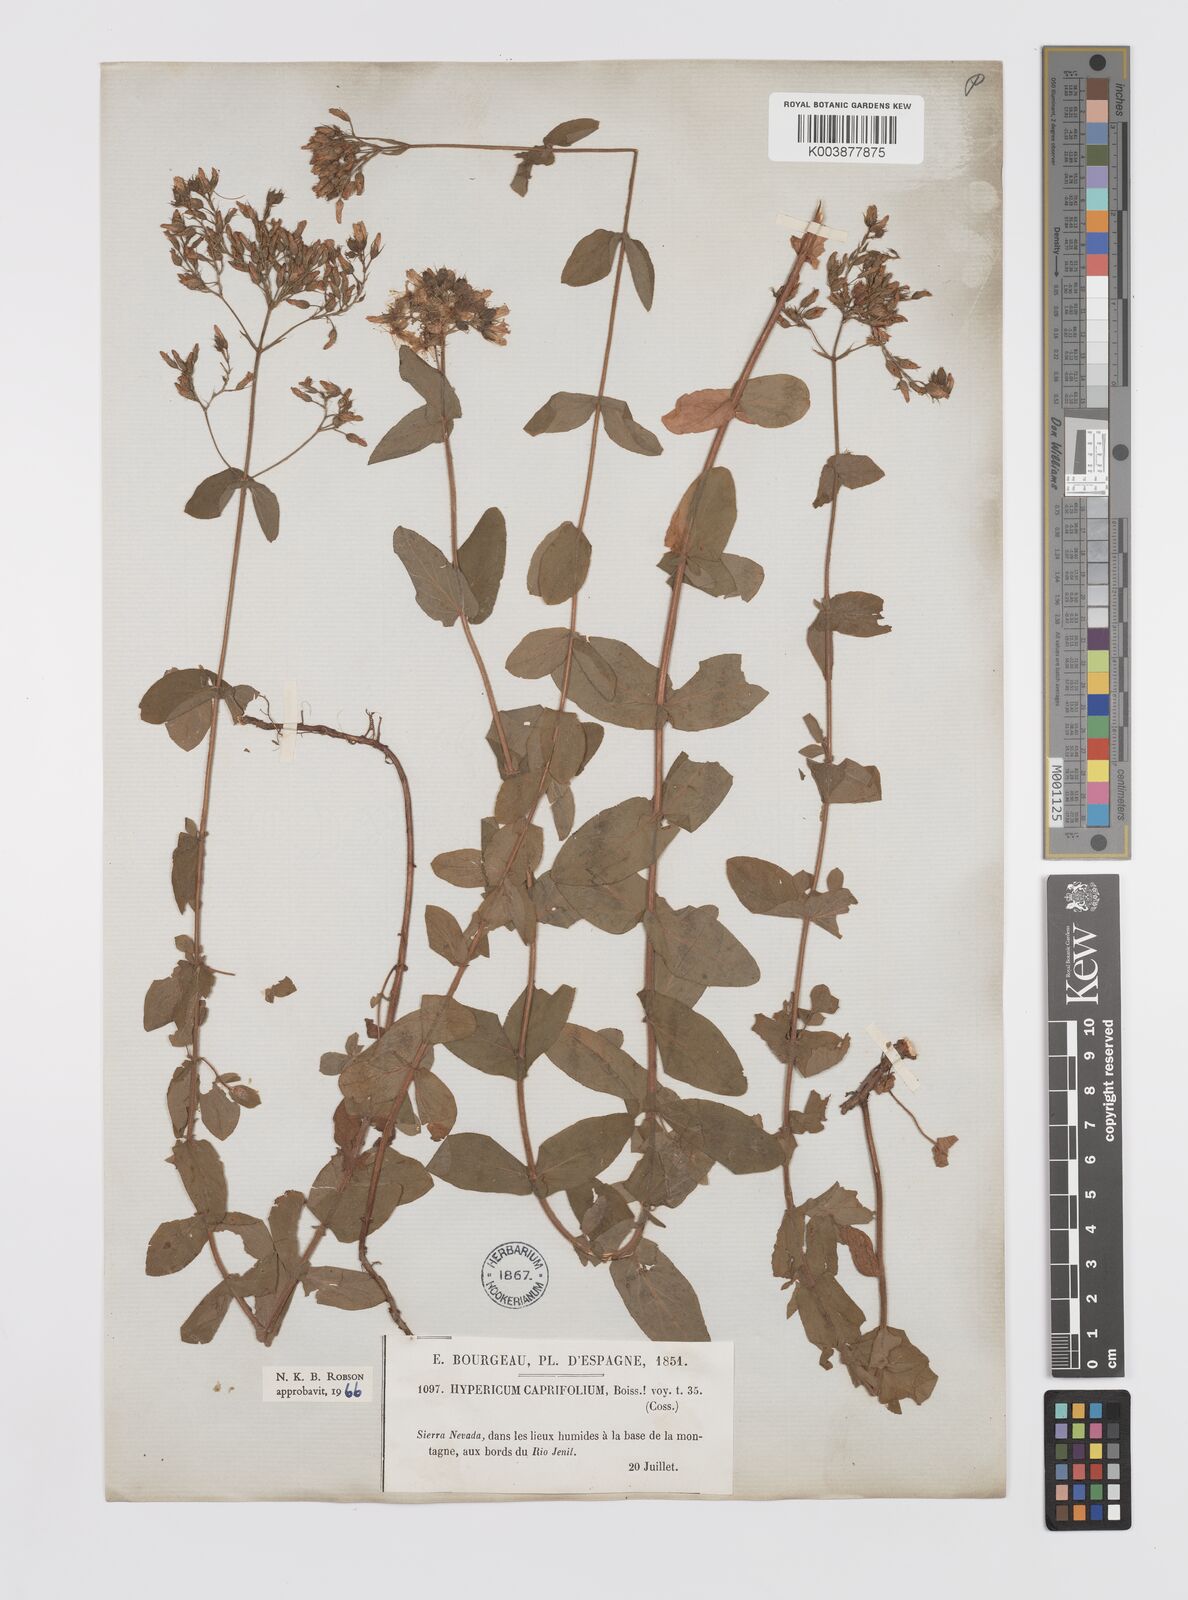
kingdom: Plantae
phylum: Tracheophyta
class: Magnoliopsida
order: Malpighiales
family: Hypericaceae
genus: Hypericum
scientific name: Hypericum caprifolium
